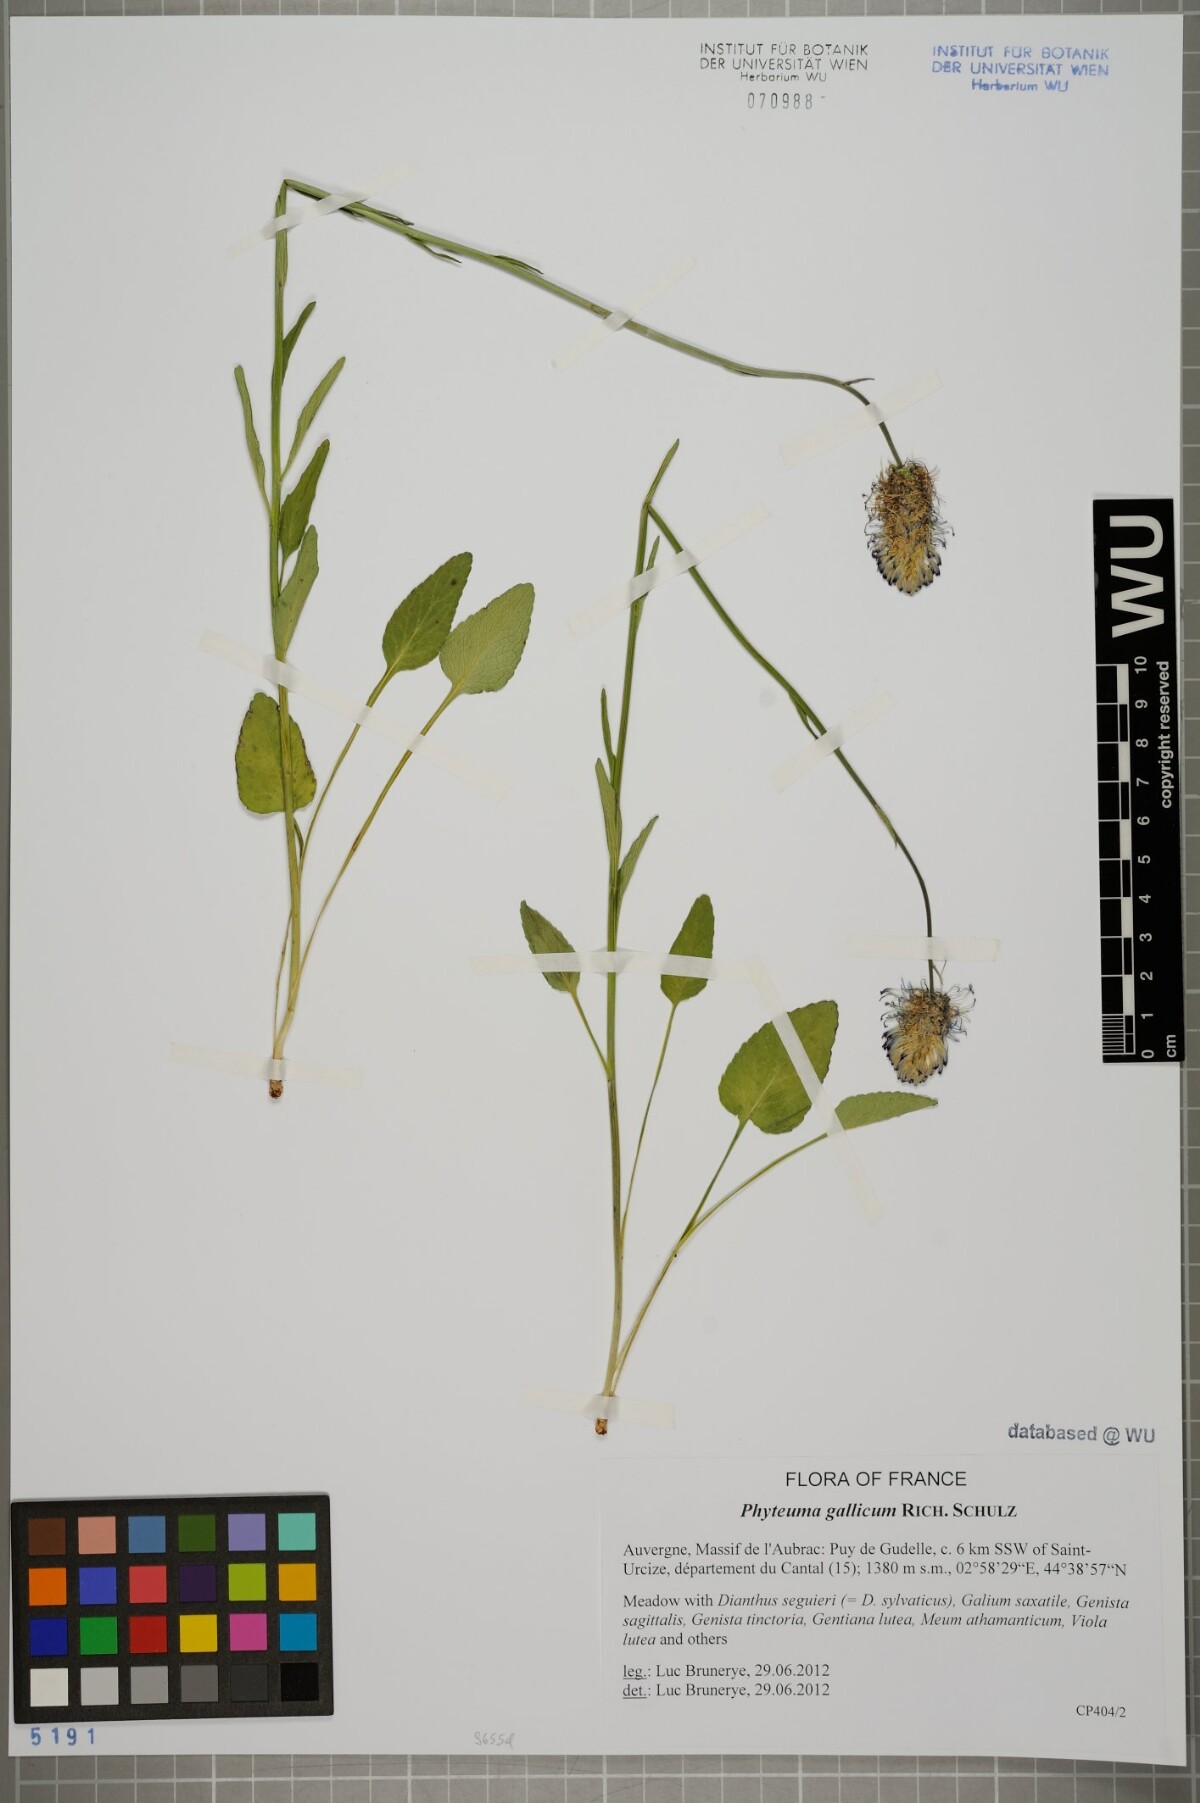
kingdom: Plantae
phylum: Tracheophyta
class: Magnoliopsida
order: Asterales
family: Campanulaceae
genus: Phyteuma
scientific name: Phyteuma gallicum
